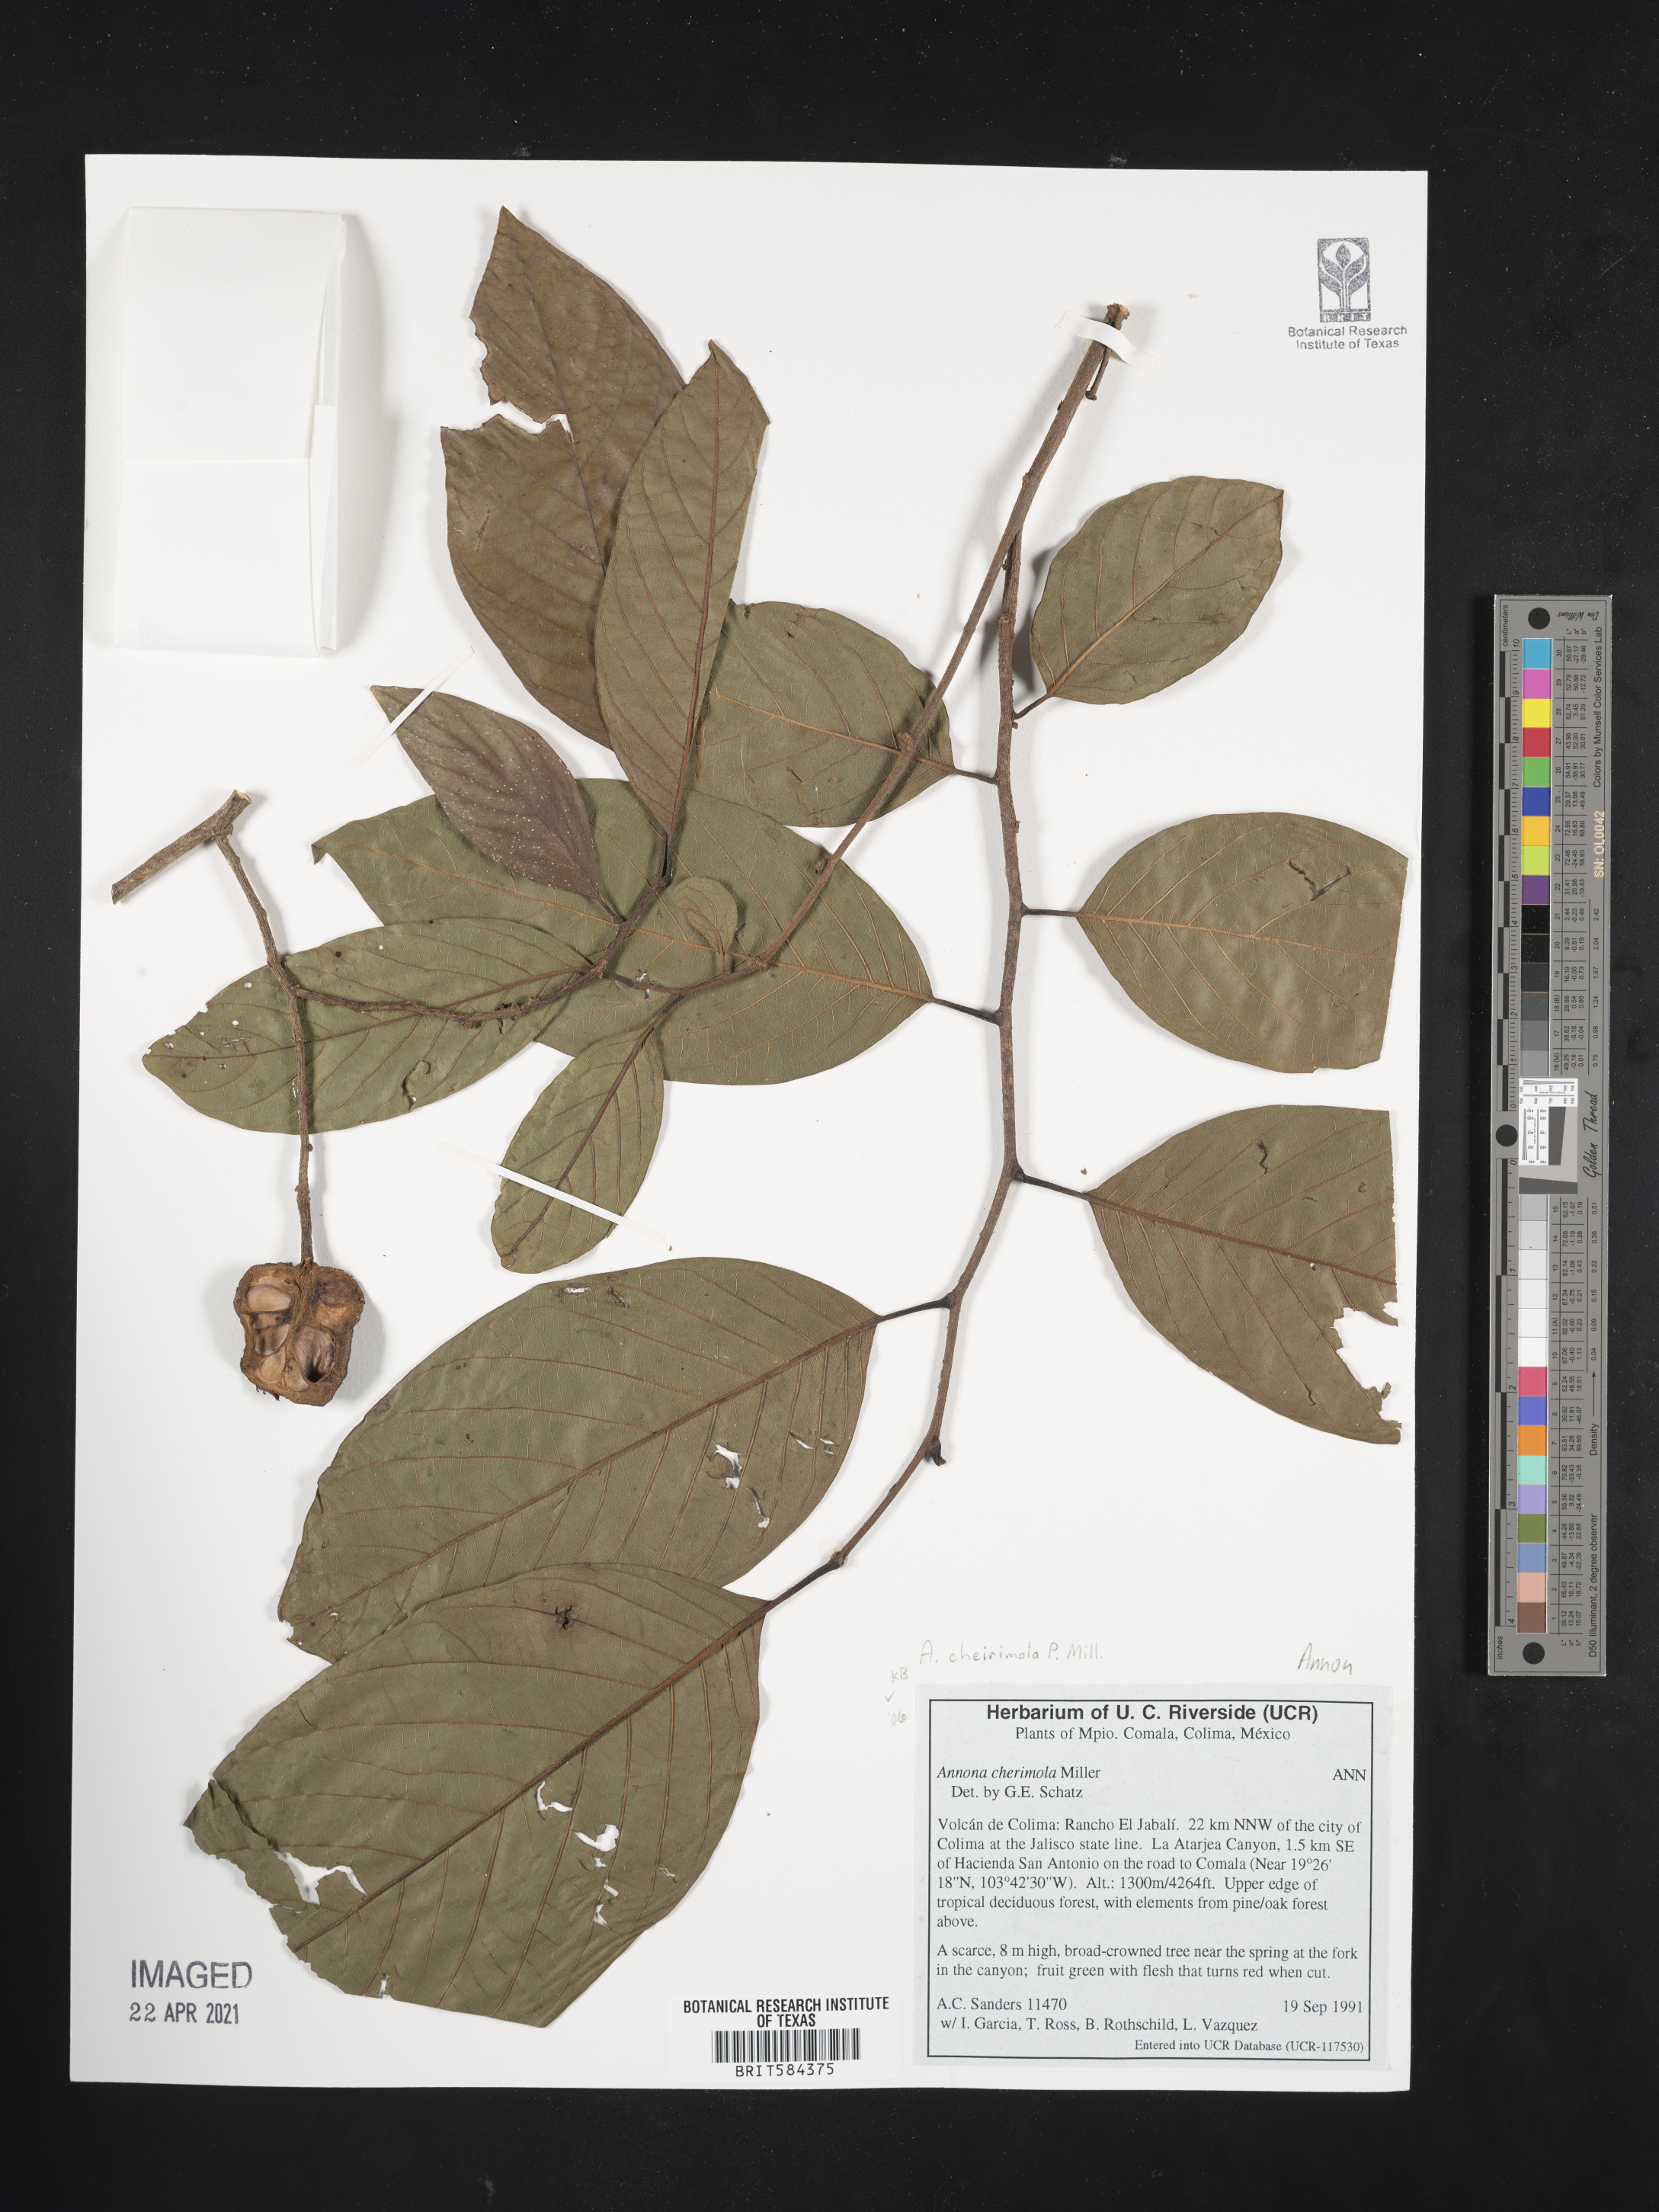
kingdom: Plantae
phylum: Tracheophyta
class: Magnoliopsida
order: Magnoliales
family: Annonaceae
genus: Annona
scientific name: Annona cherimola
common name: Cherimoya
